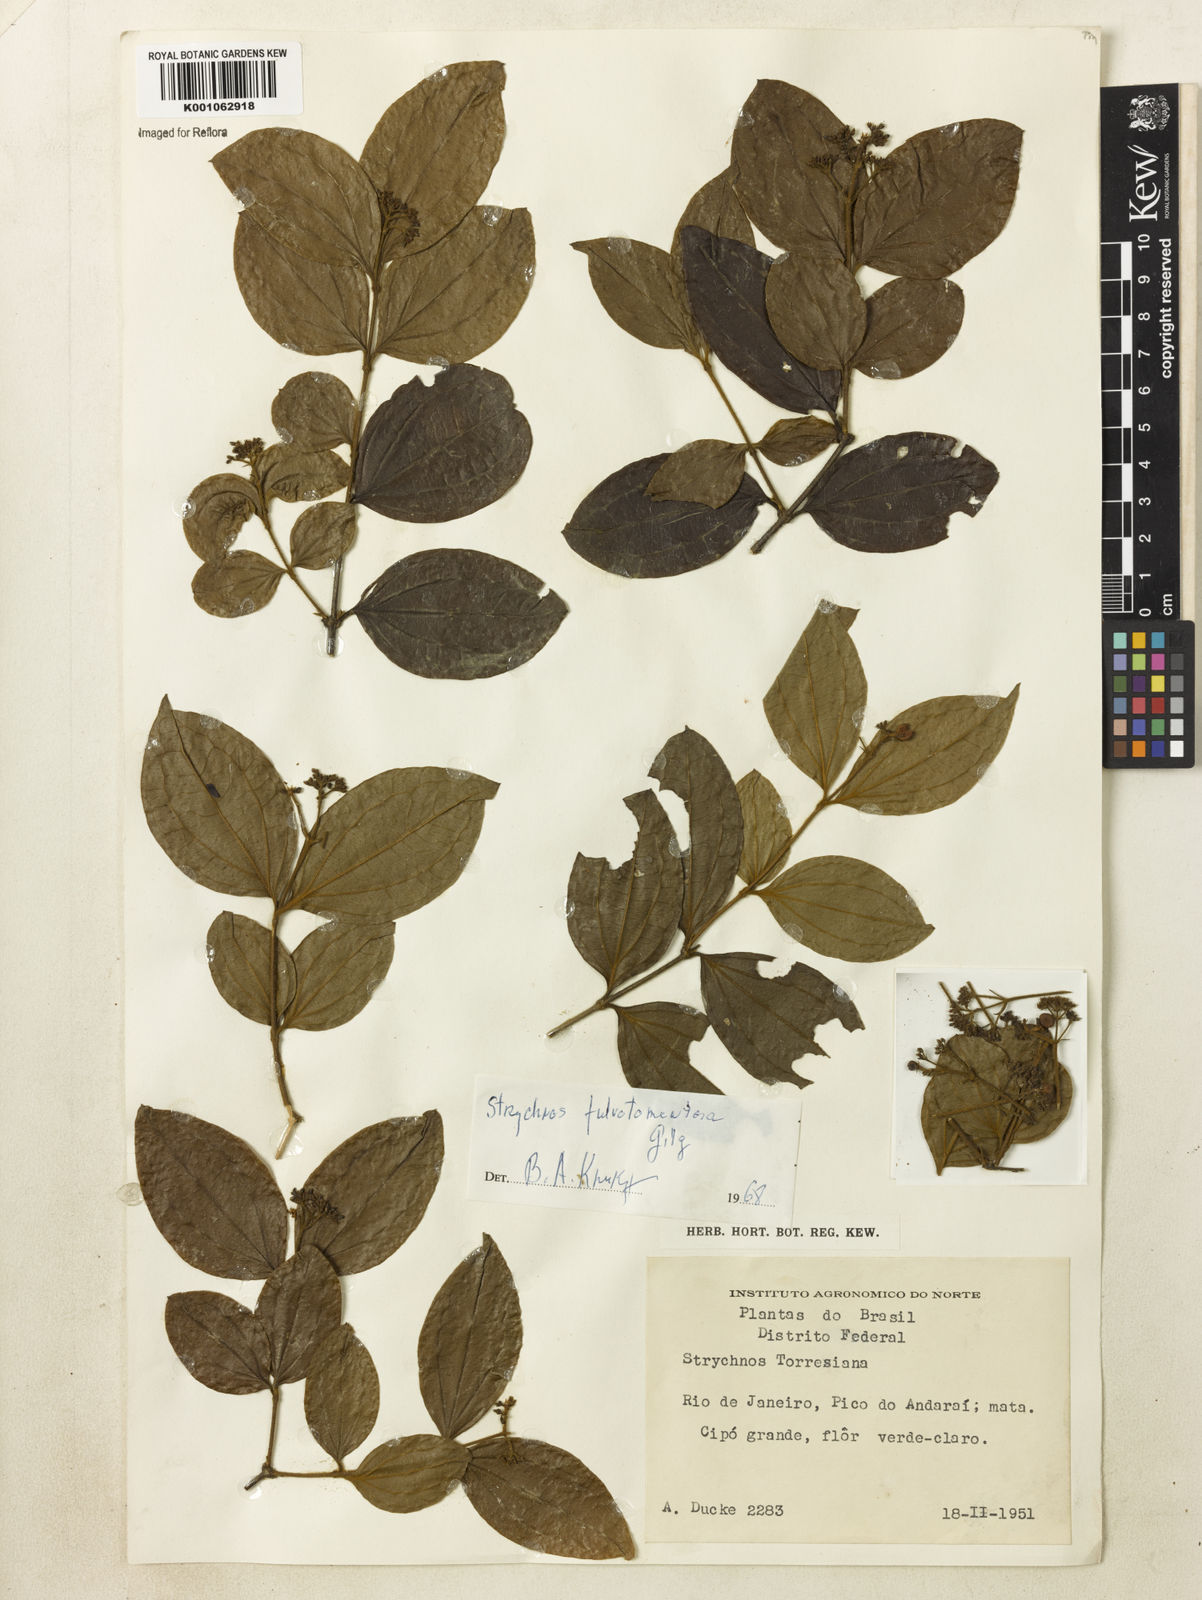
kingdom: Plantae
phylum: Tracheophyta
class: Magnoliopsida
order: Gentianales
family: Loganiaceae
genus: Strychnos
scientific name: Strychnos fulvotomentosa
